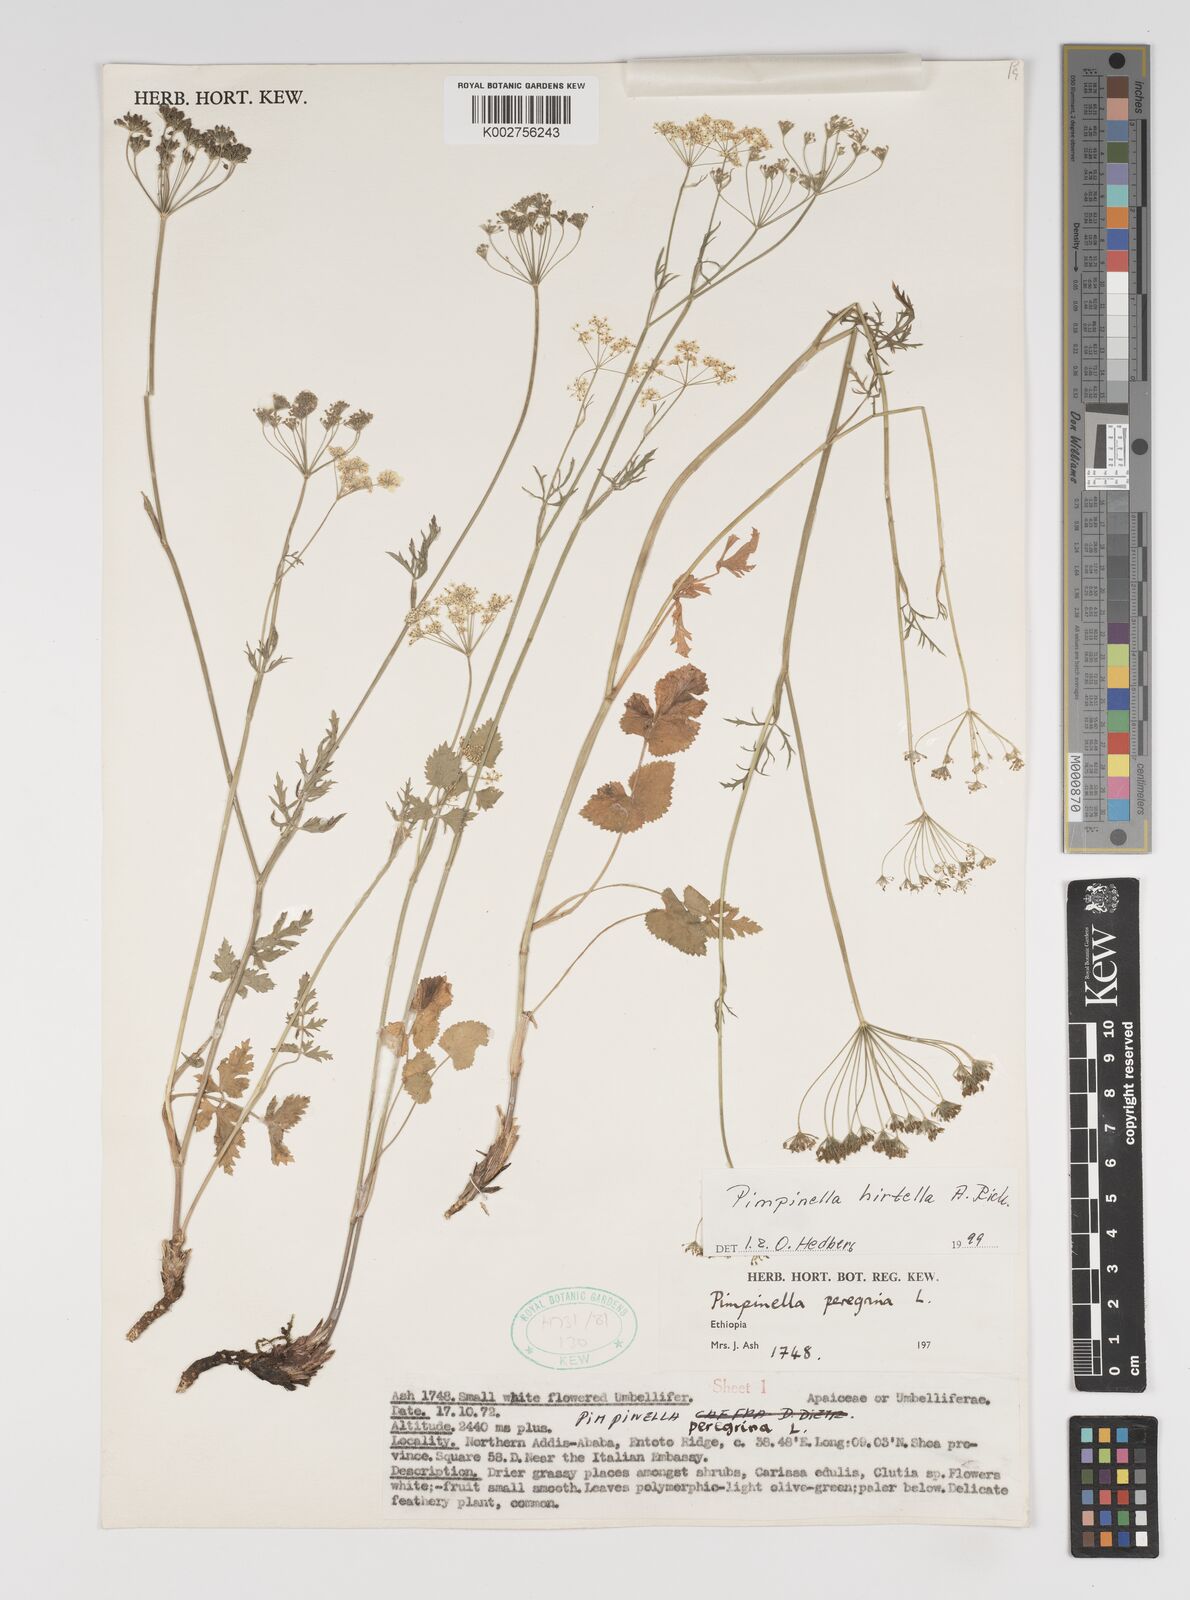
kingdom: Plantae
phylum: Tracheophyta
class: Magnoliopsida
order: Apiales
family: Apiaceae
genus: Pimpinella
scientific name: Pimpinella hirtella
